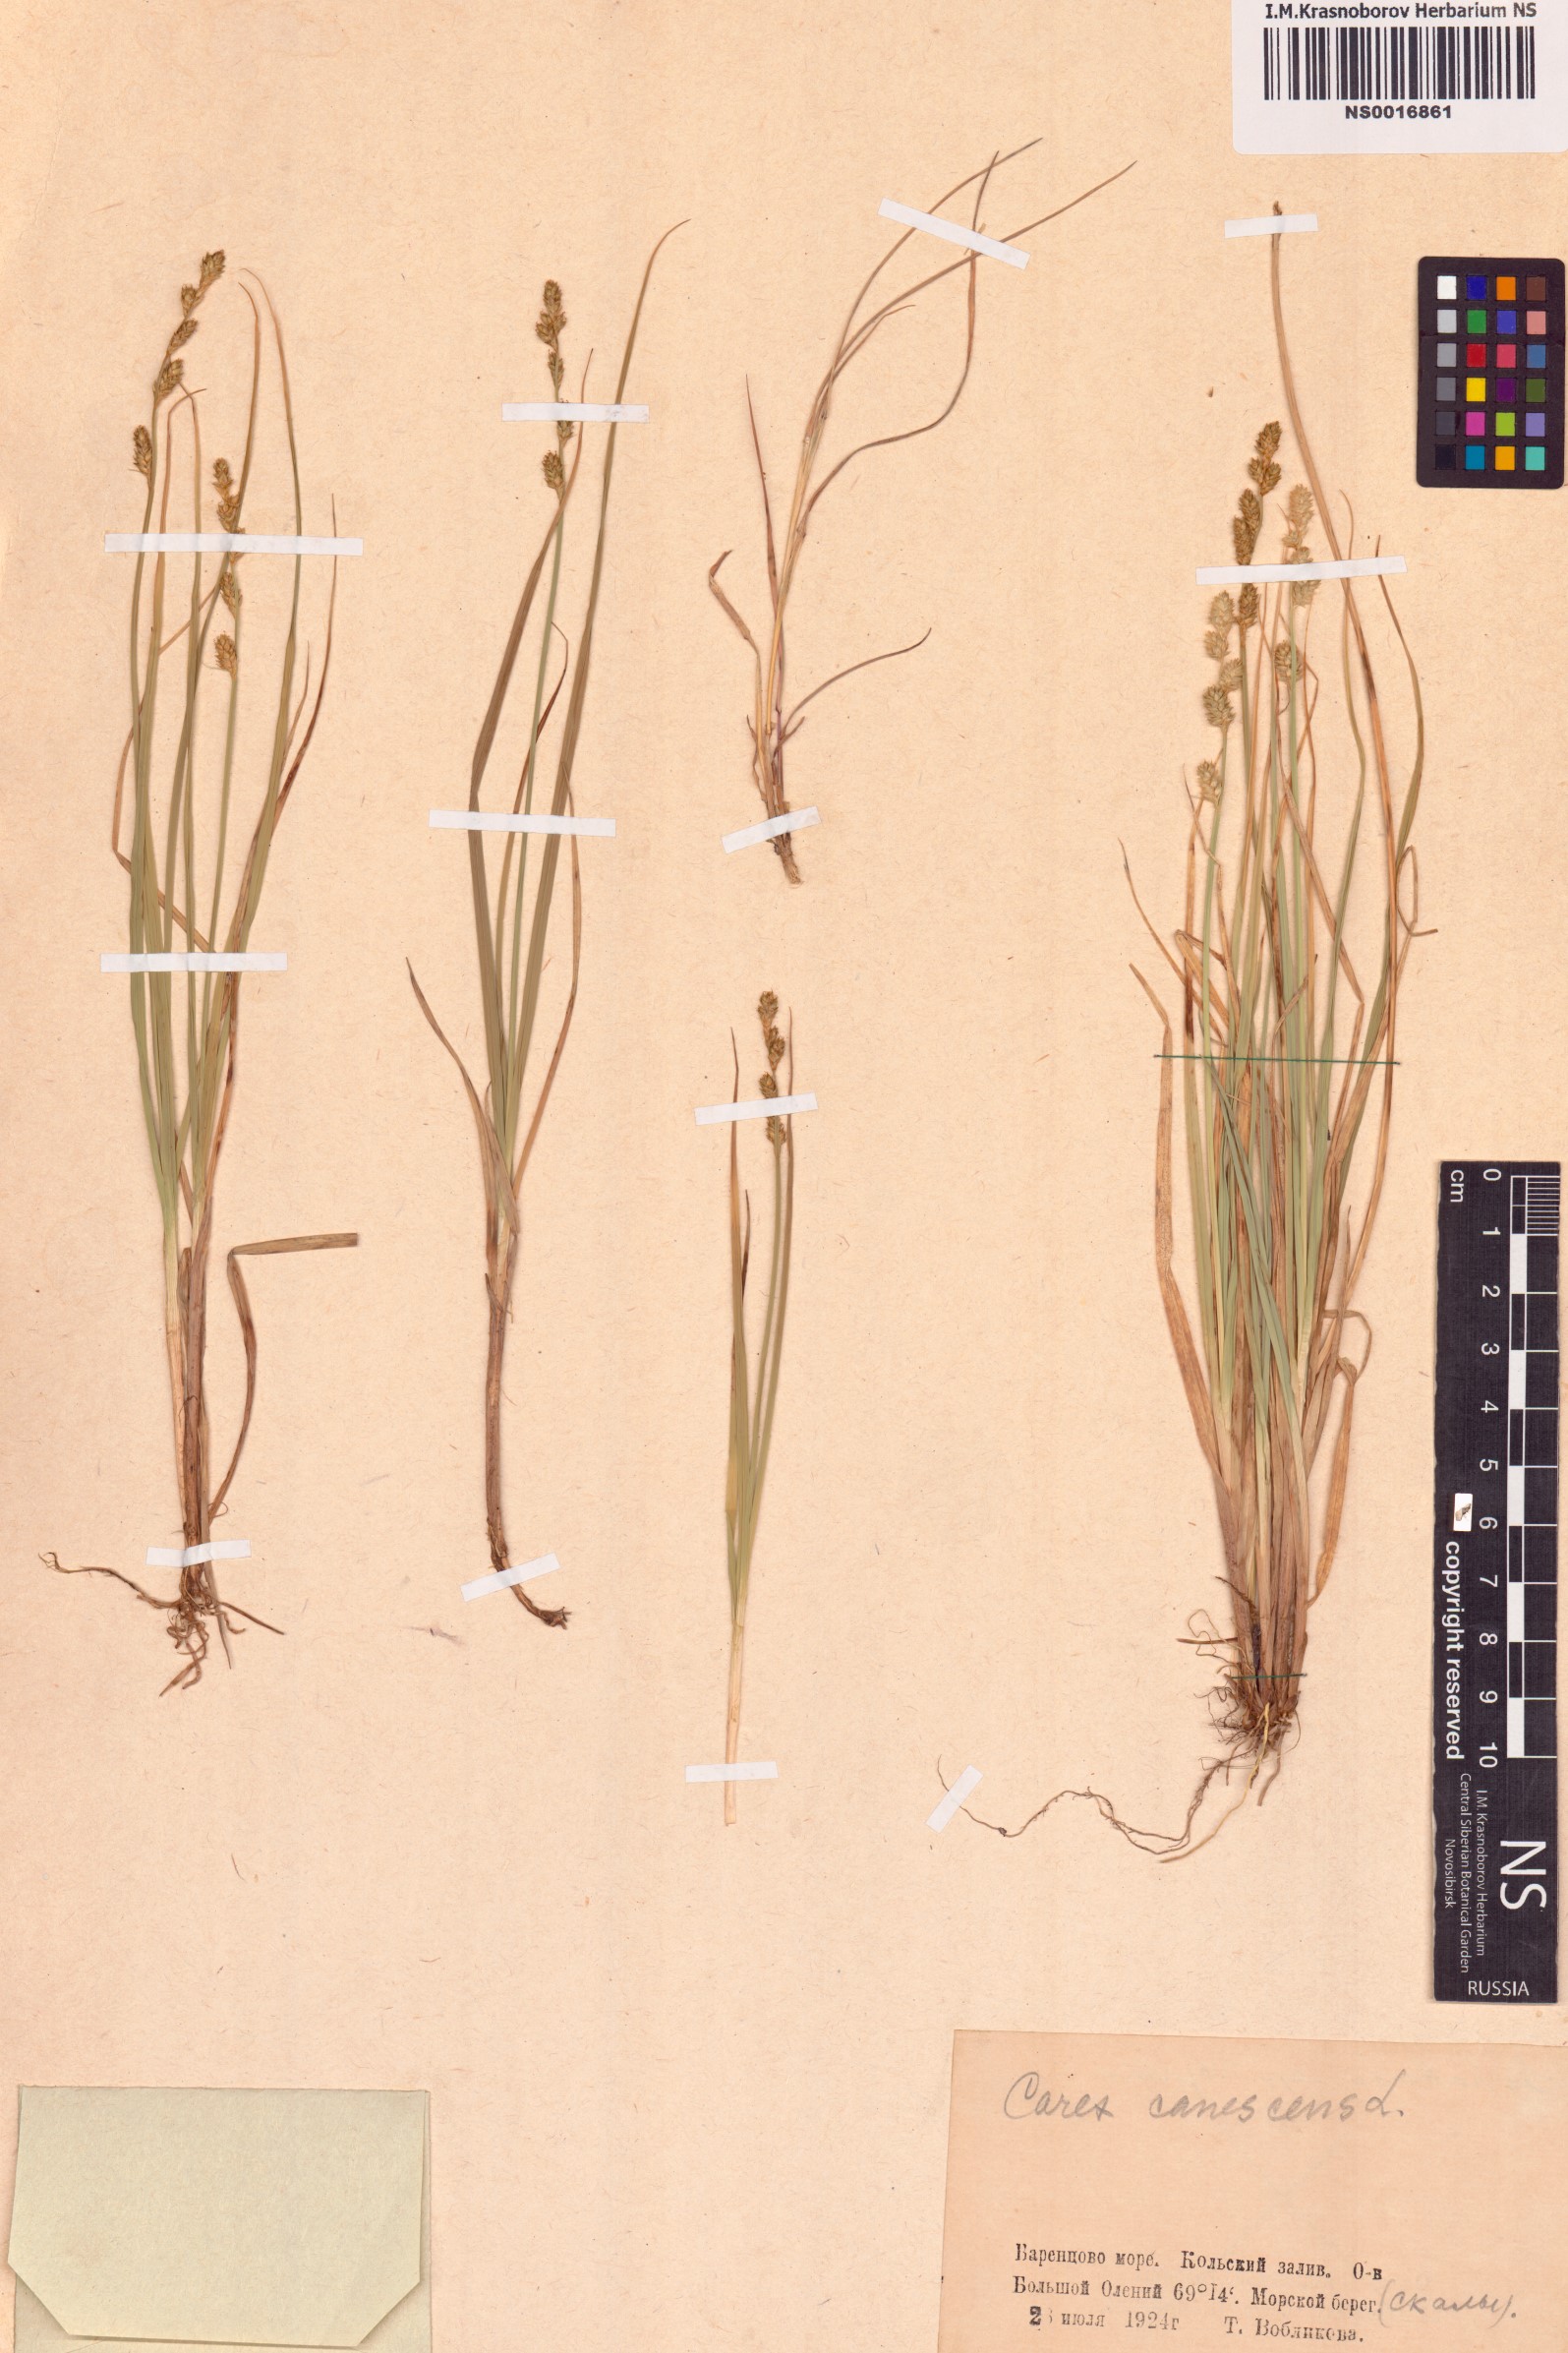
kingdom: Plantae
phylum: Tracheophyta
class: Liliopsida
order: Poales
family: Cyperaceae
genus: Carex
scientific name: Carex canescens
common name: White sedge
